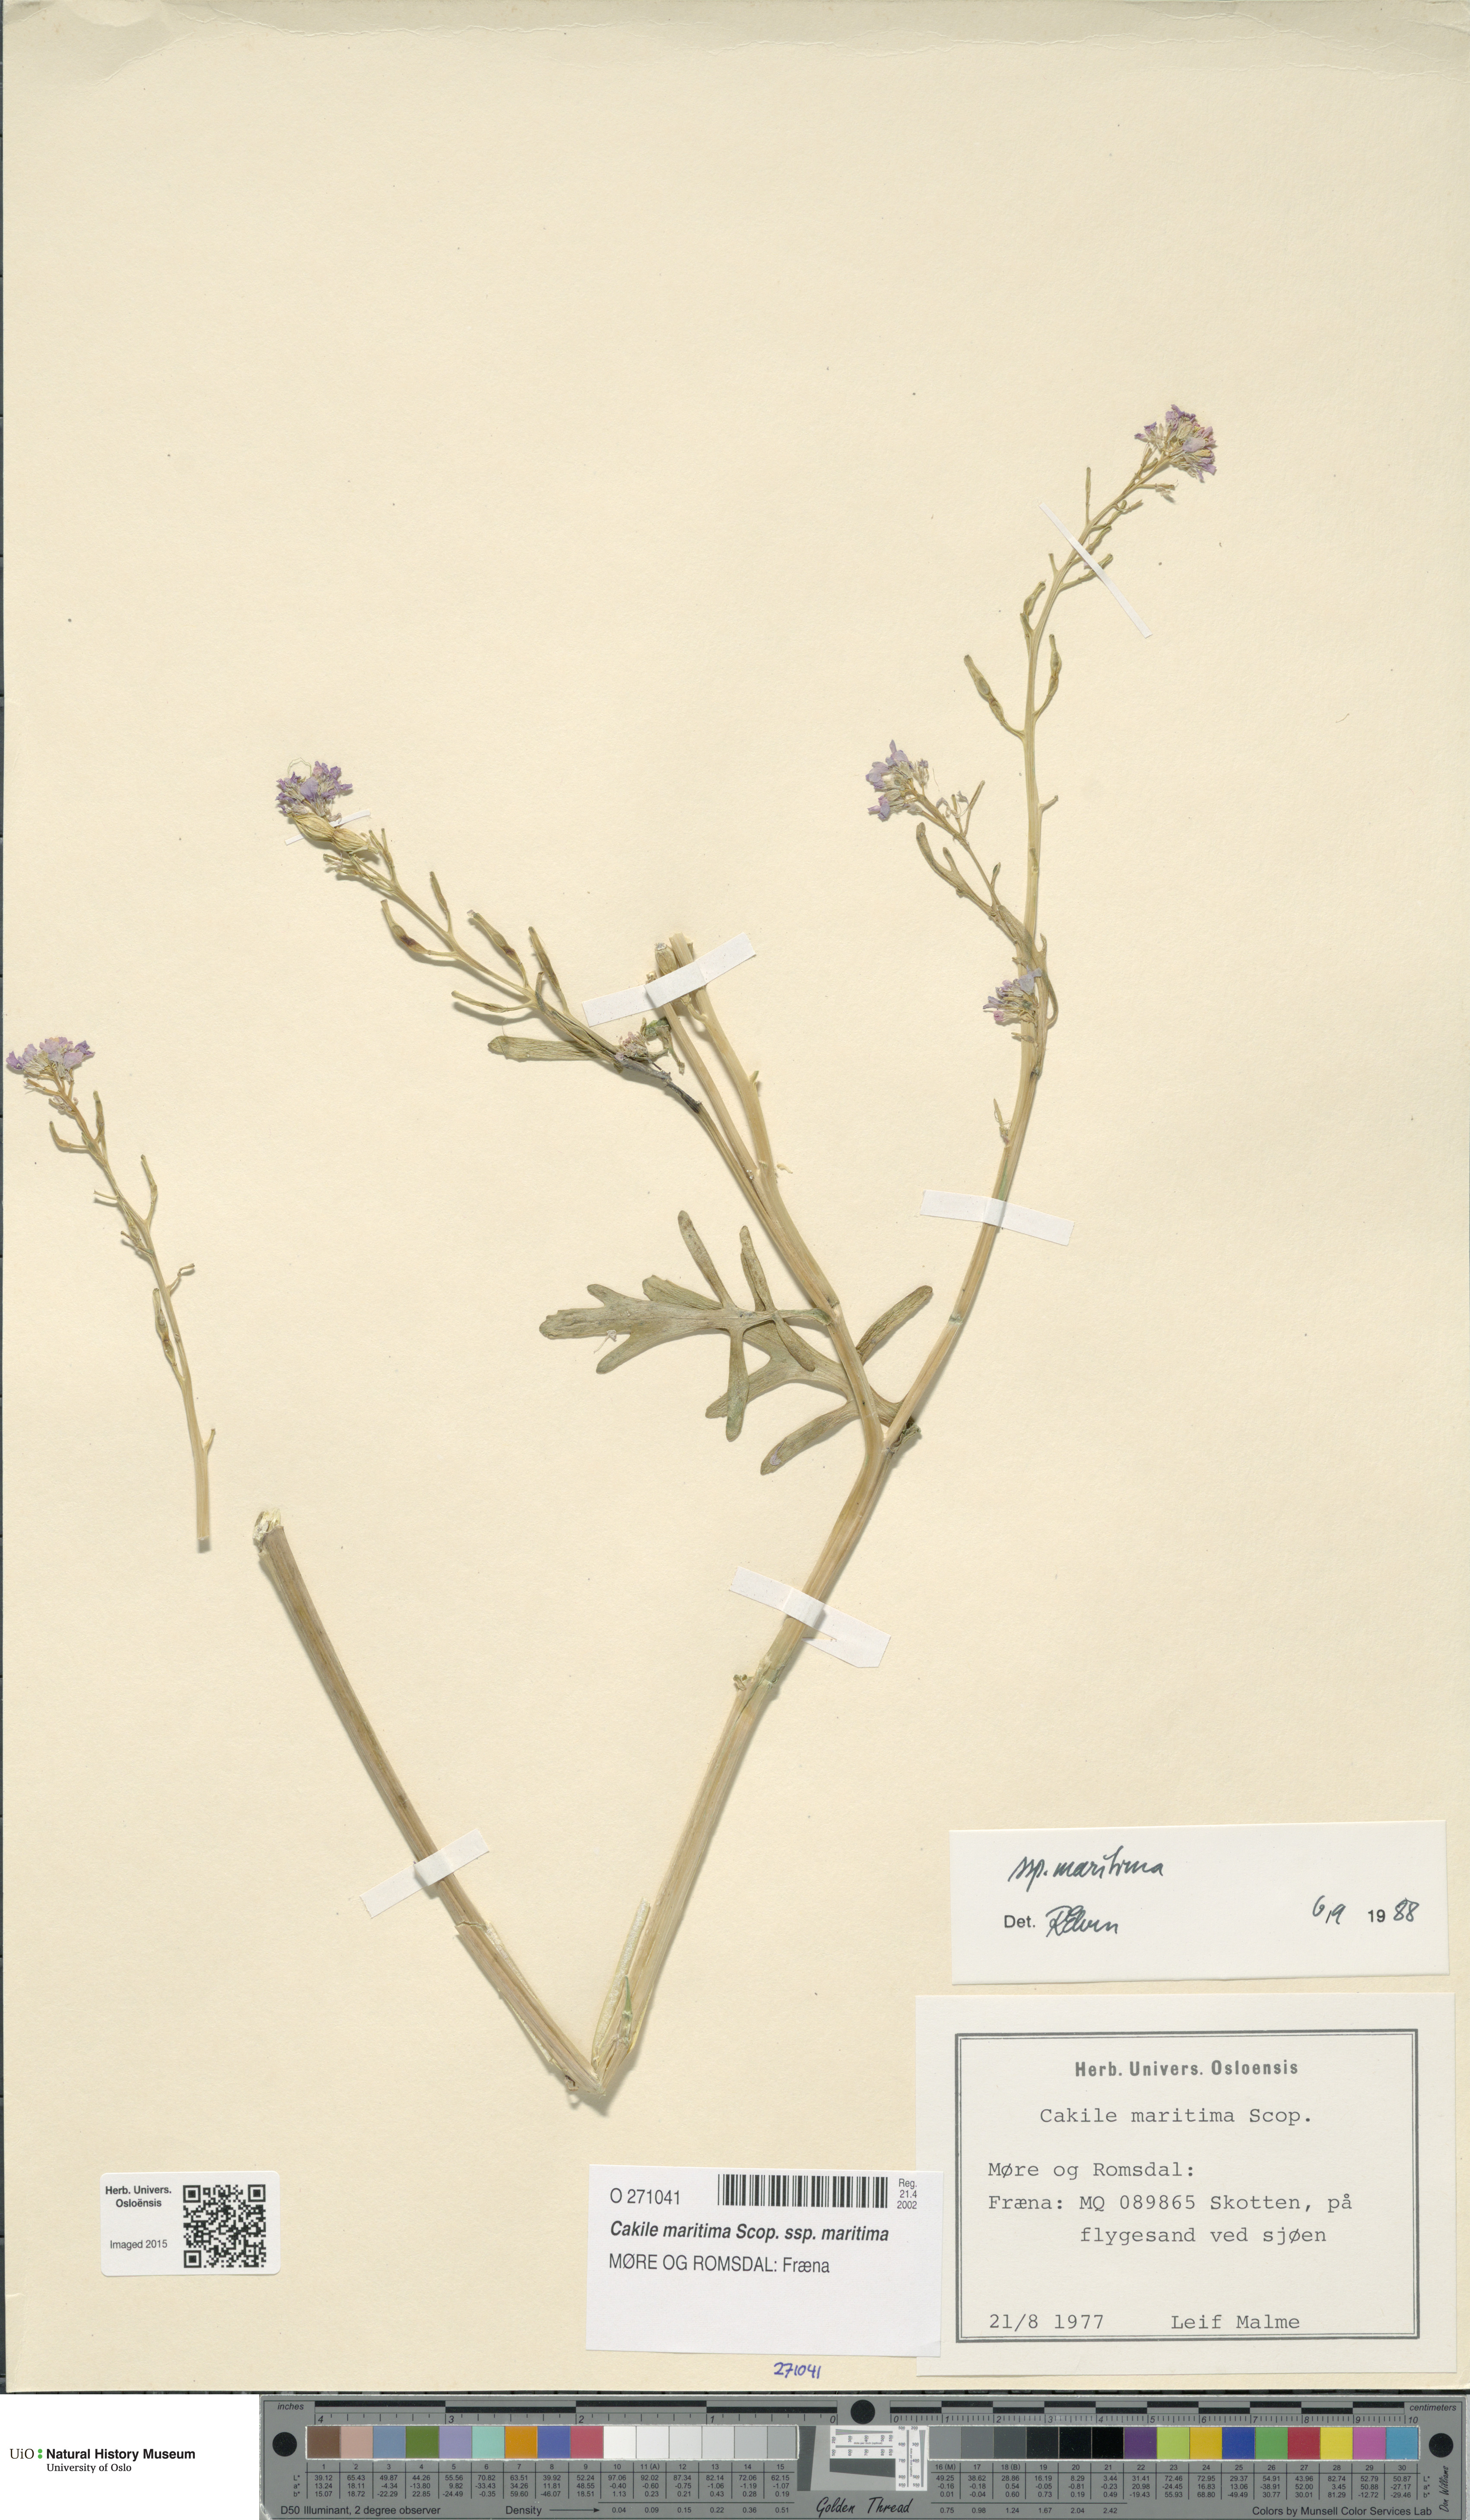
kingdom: Plantae
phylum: Tracheophyta
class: Magnoliopsida
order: Brassicales
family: Brassicaceae
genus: Cakile
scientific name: Cakile maritima
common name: Sea rocket
